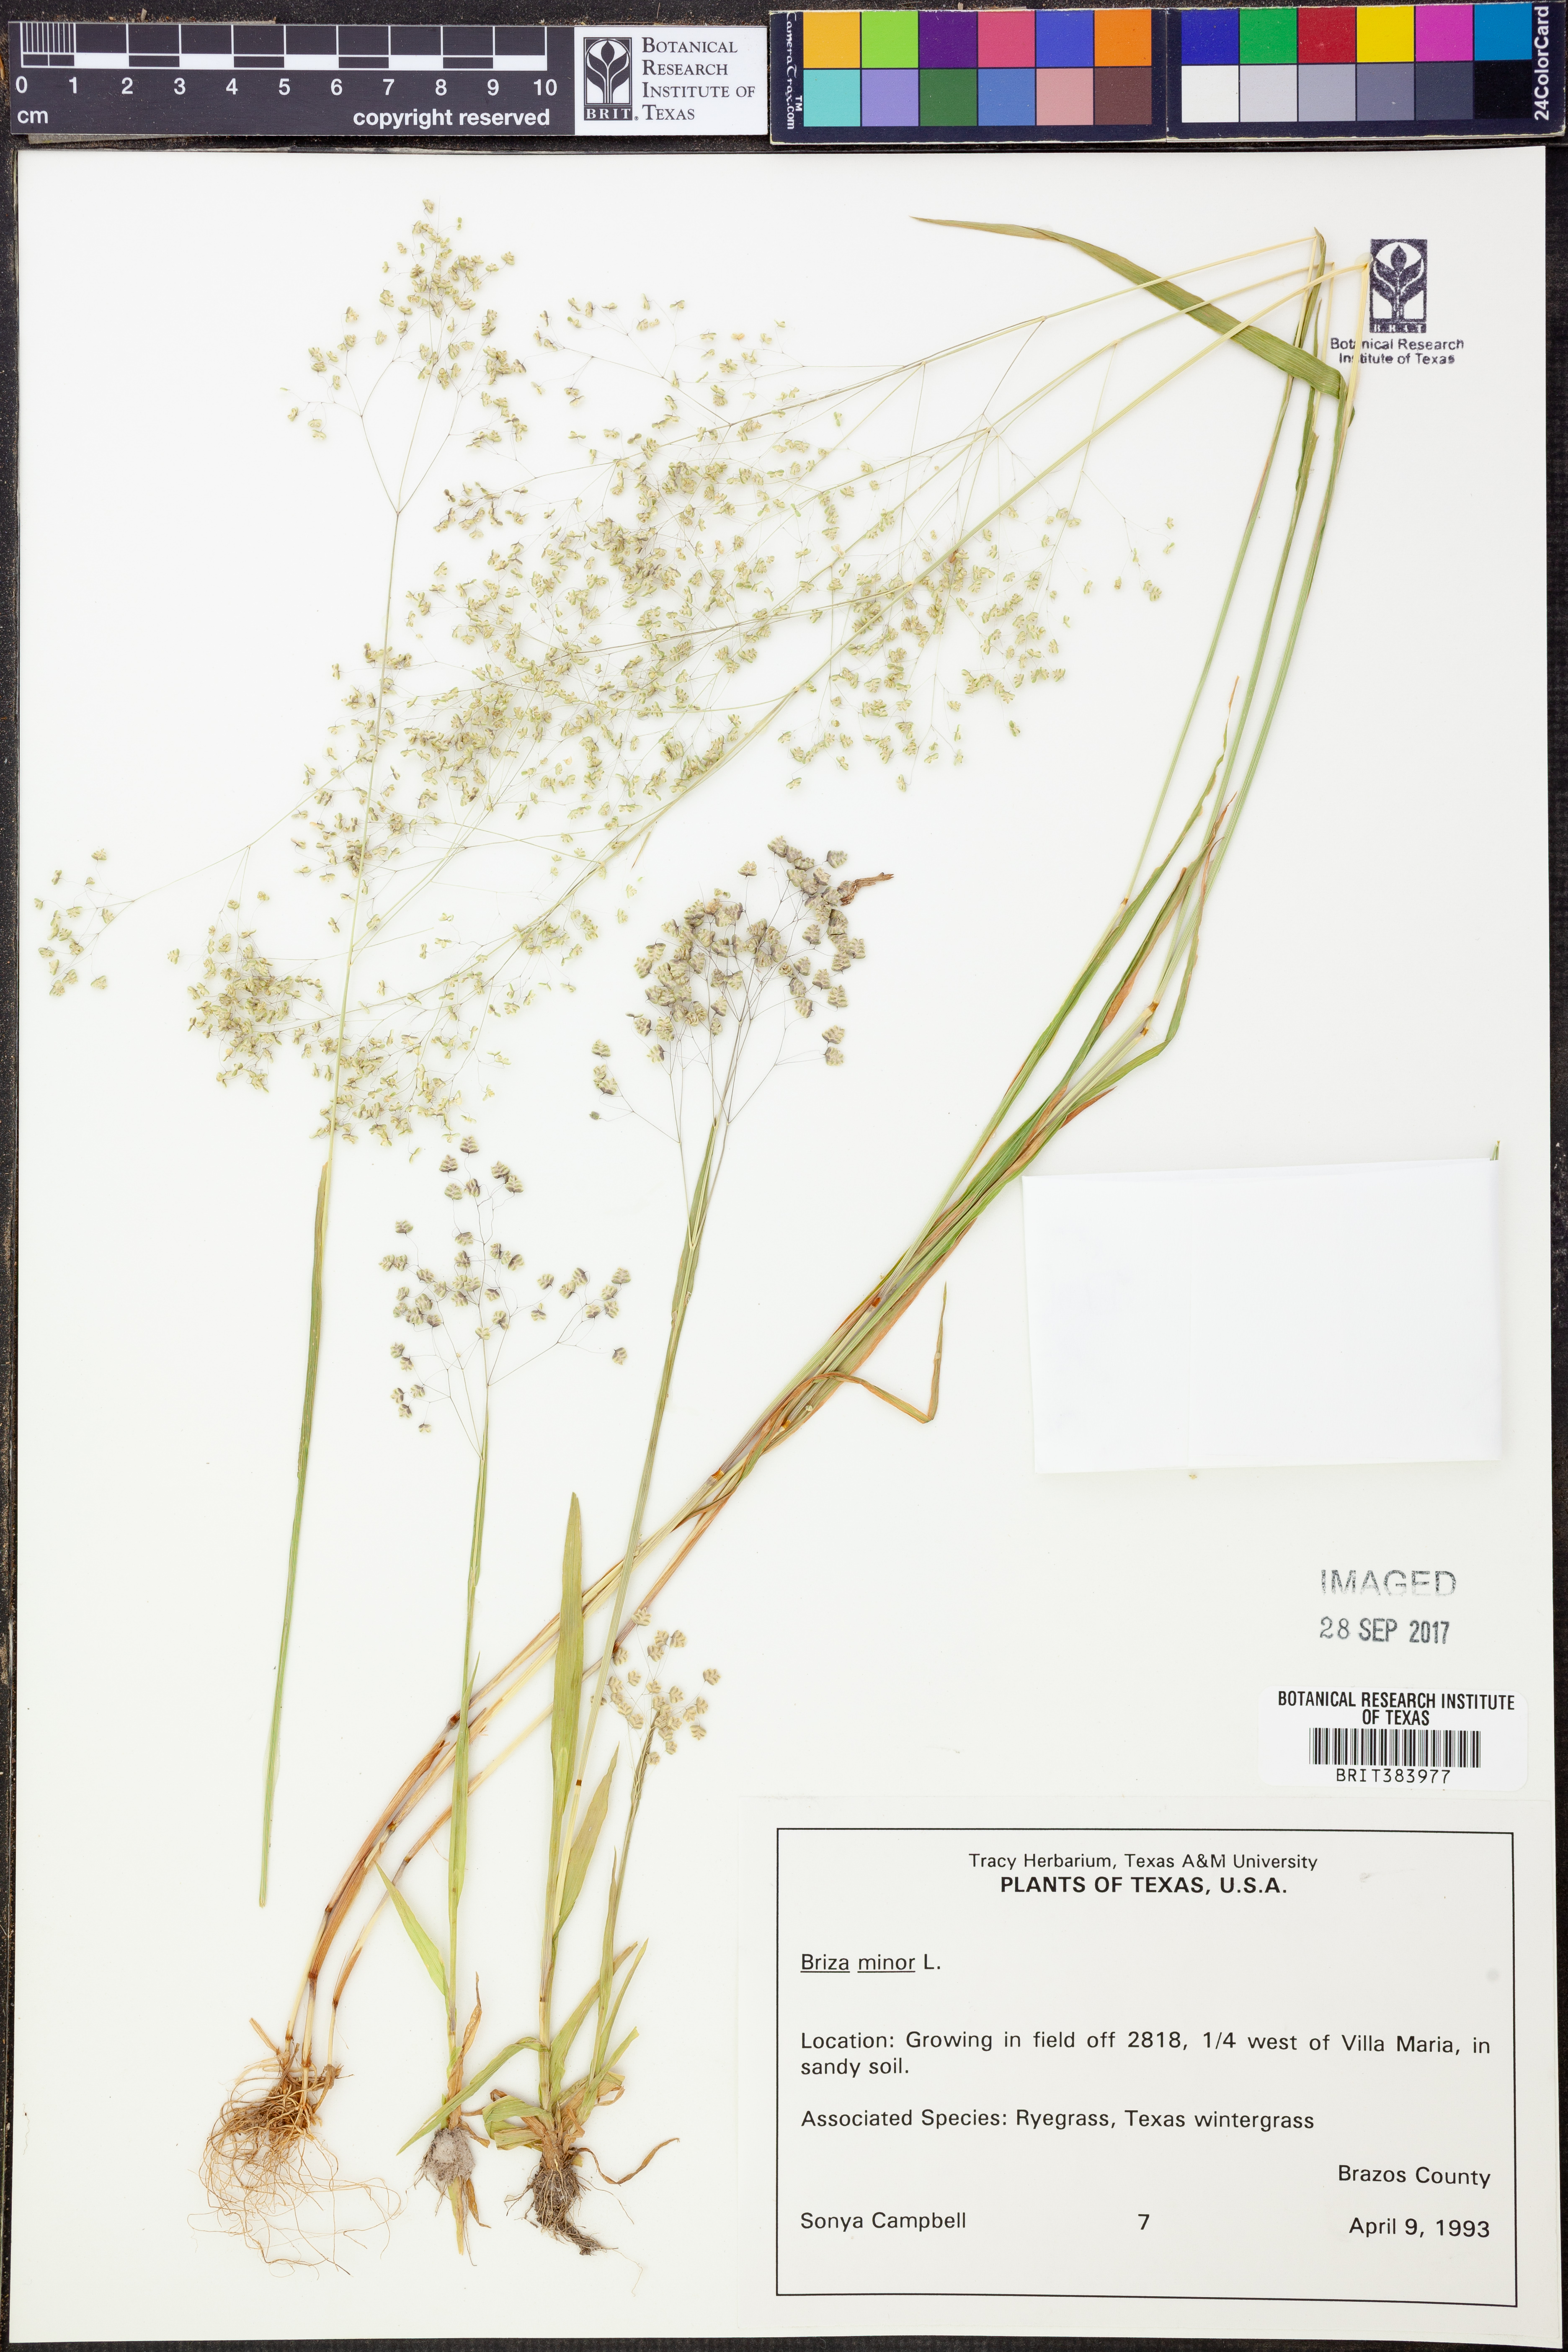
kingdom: Plantae
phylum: Tracheophyta
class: Liliopsida
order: Poales
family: Poaceae
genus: Briza
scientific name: Briza minor
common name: Lesser quaking-grass
